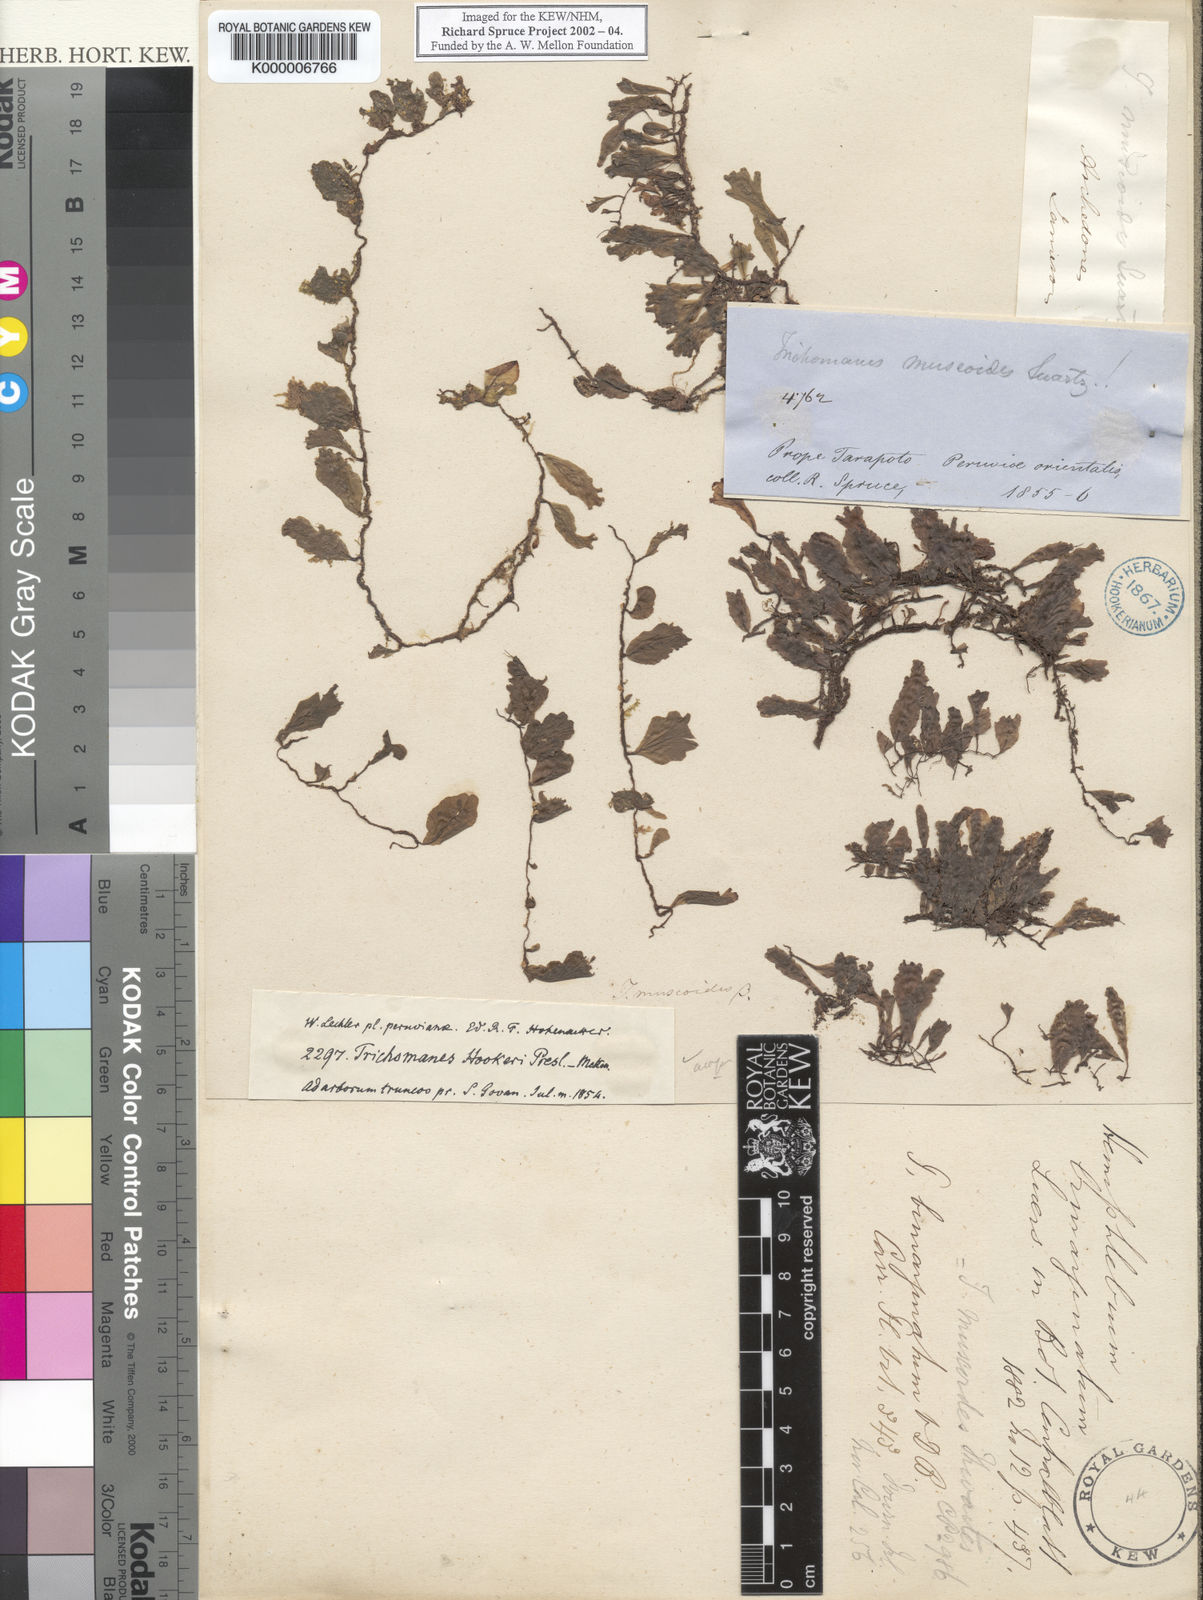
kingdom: Plantae
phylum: Tracheophyta
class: Polypodiopsida
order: Hymenophyllales
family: Hymenophyllaceae
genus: Didymoglossum
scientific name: Didymoglossum hymenoides
